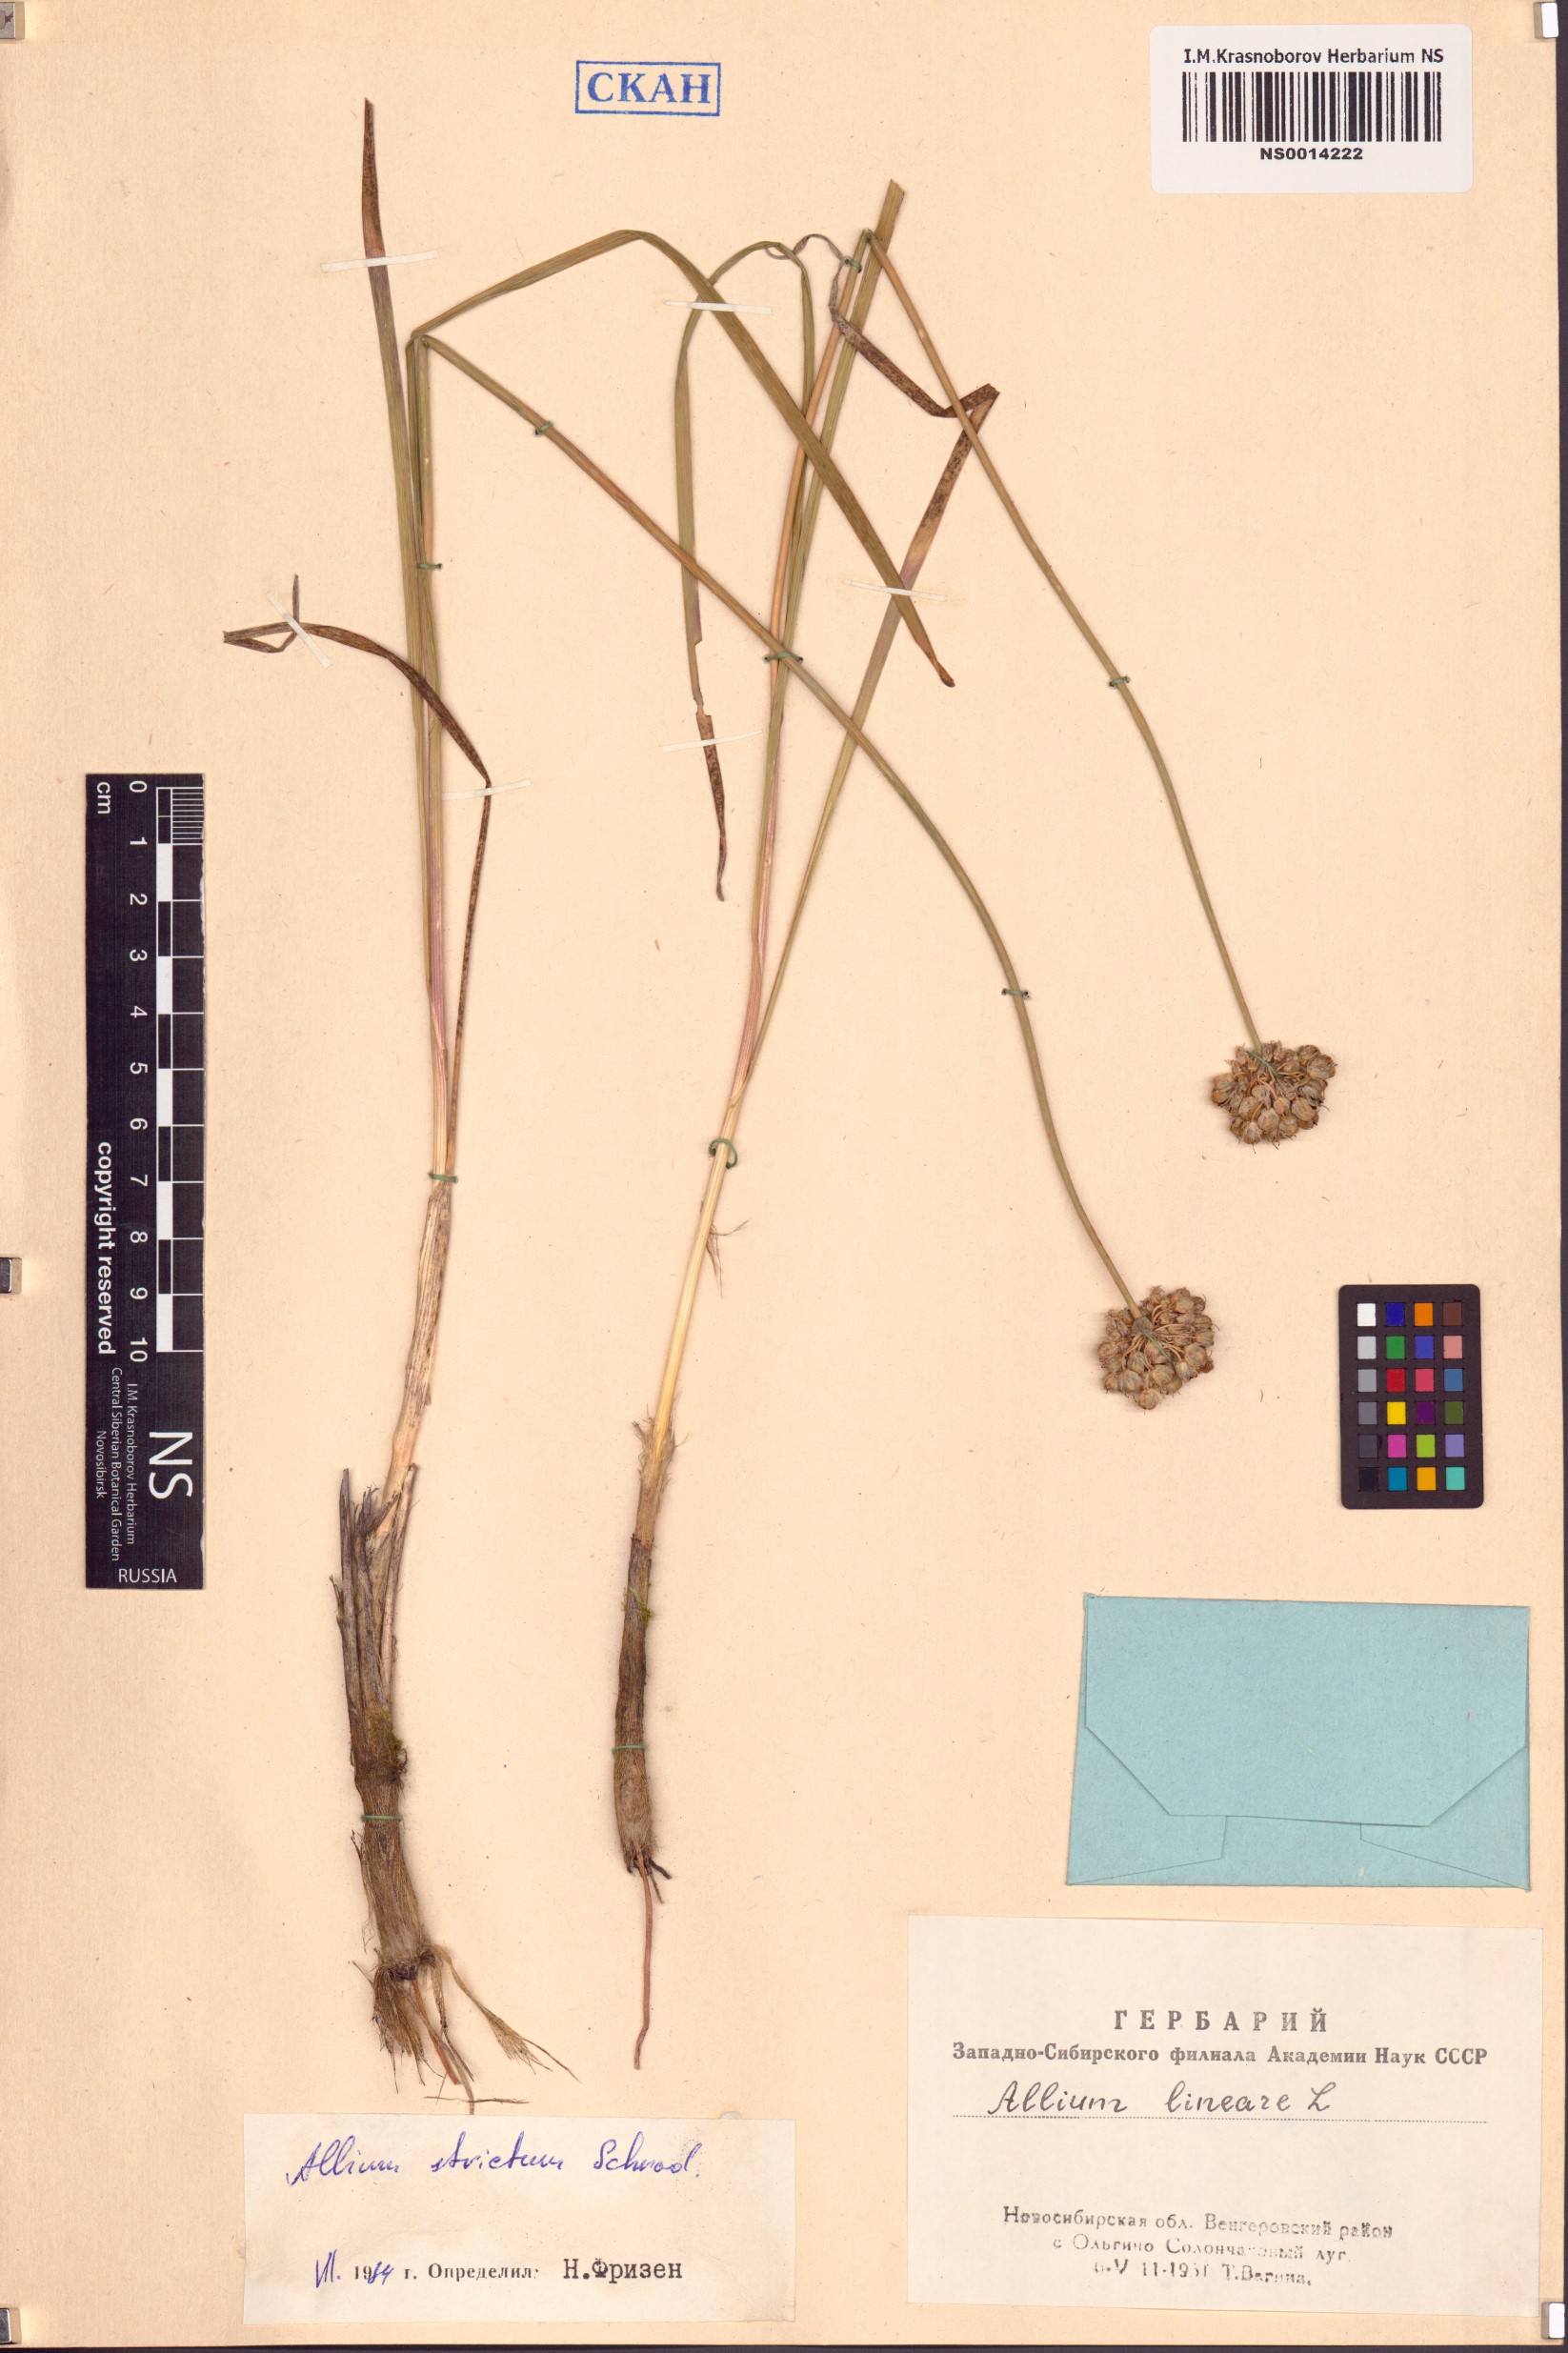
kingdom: Plantae
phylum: Tracheophyta
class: Liliopsida
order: Asparagales
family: Amaryllidaceae
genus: Allium
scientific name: Allium strictum
